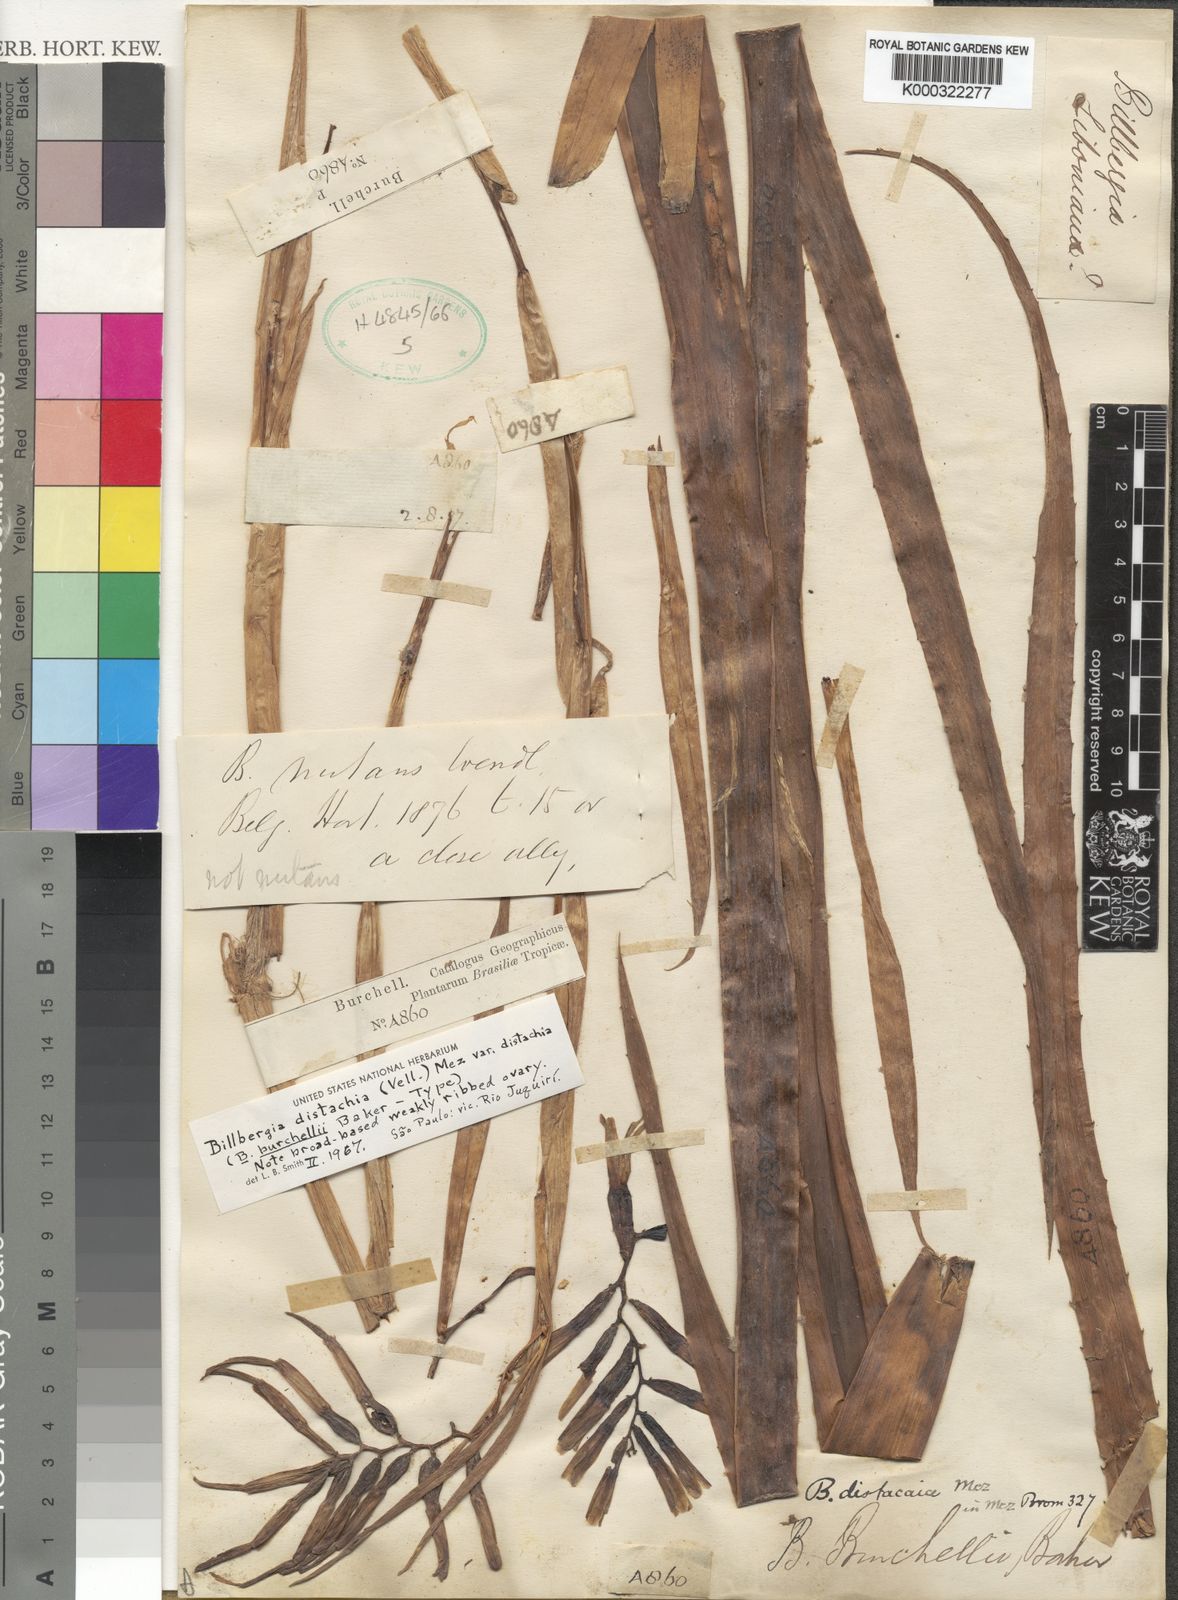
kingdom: Plantae
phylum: Tracheophyta
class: Liliopsida
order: Poales
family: Bromeliaceae
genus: Billbergia
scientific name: Billbergia distachia
